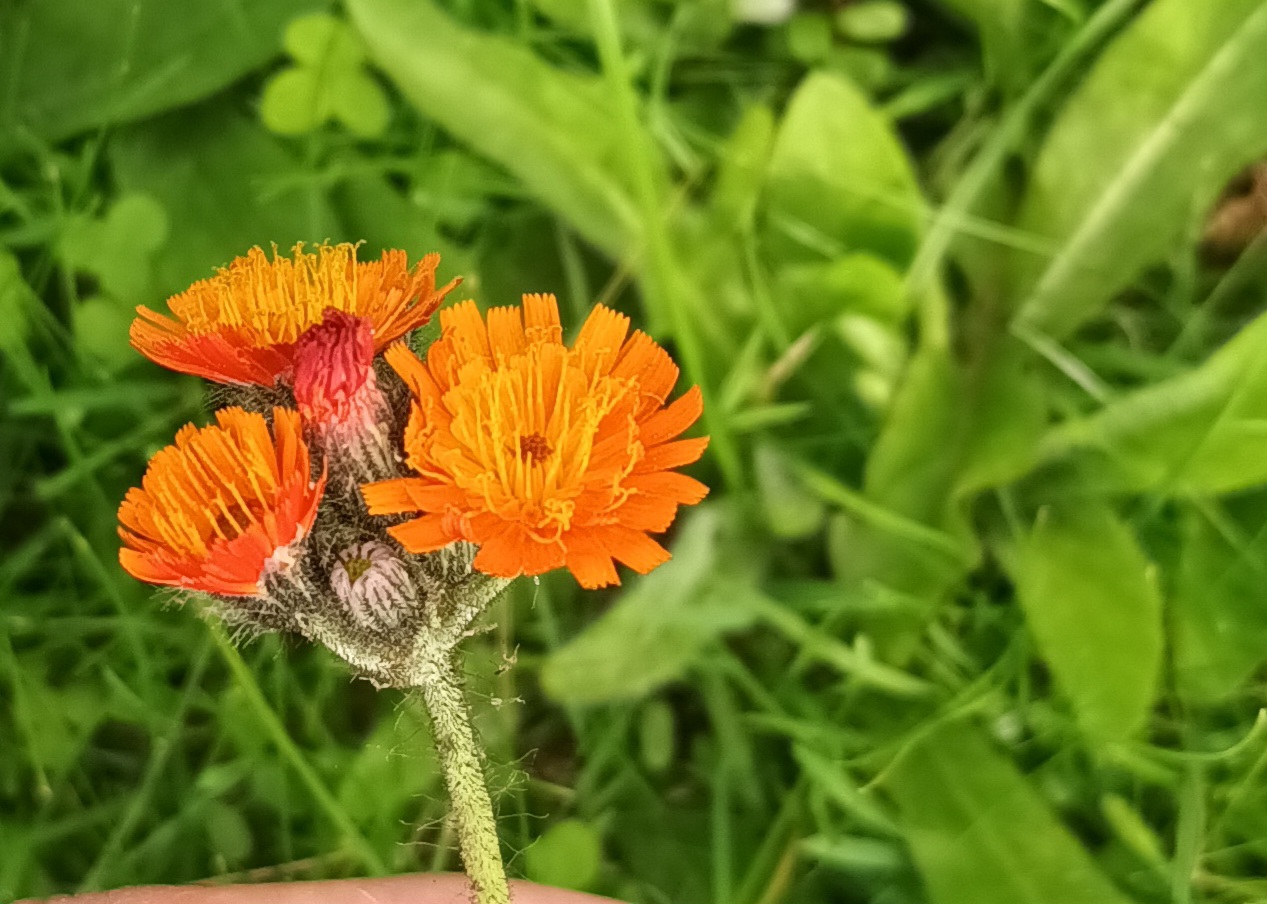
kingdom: Plantae
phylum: Tracheophyta
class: Magnoliopsida
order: Asterales
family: Asteraceae
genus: Pilosella
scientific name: Pilosella aurantiaca
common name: Pomerans-høgeurt
